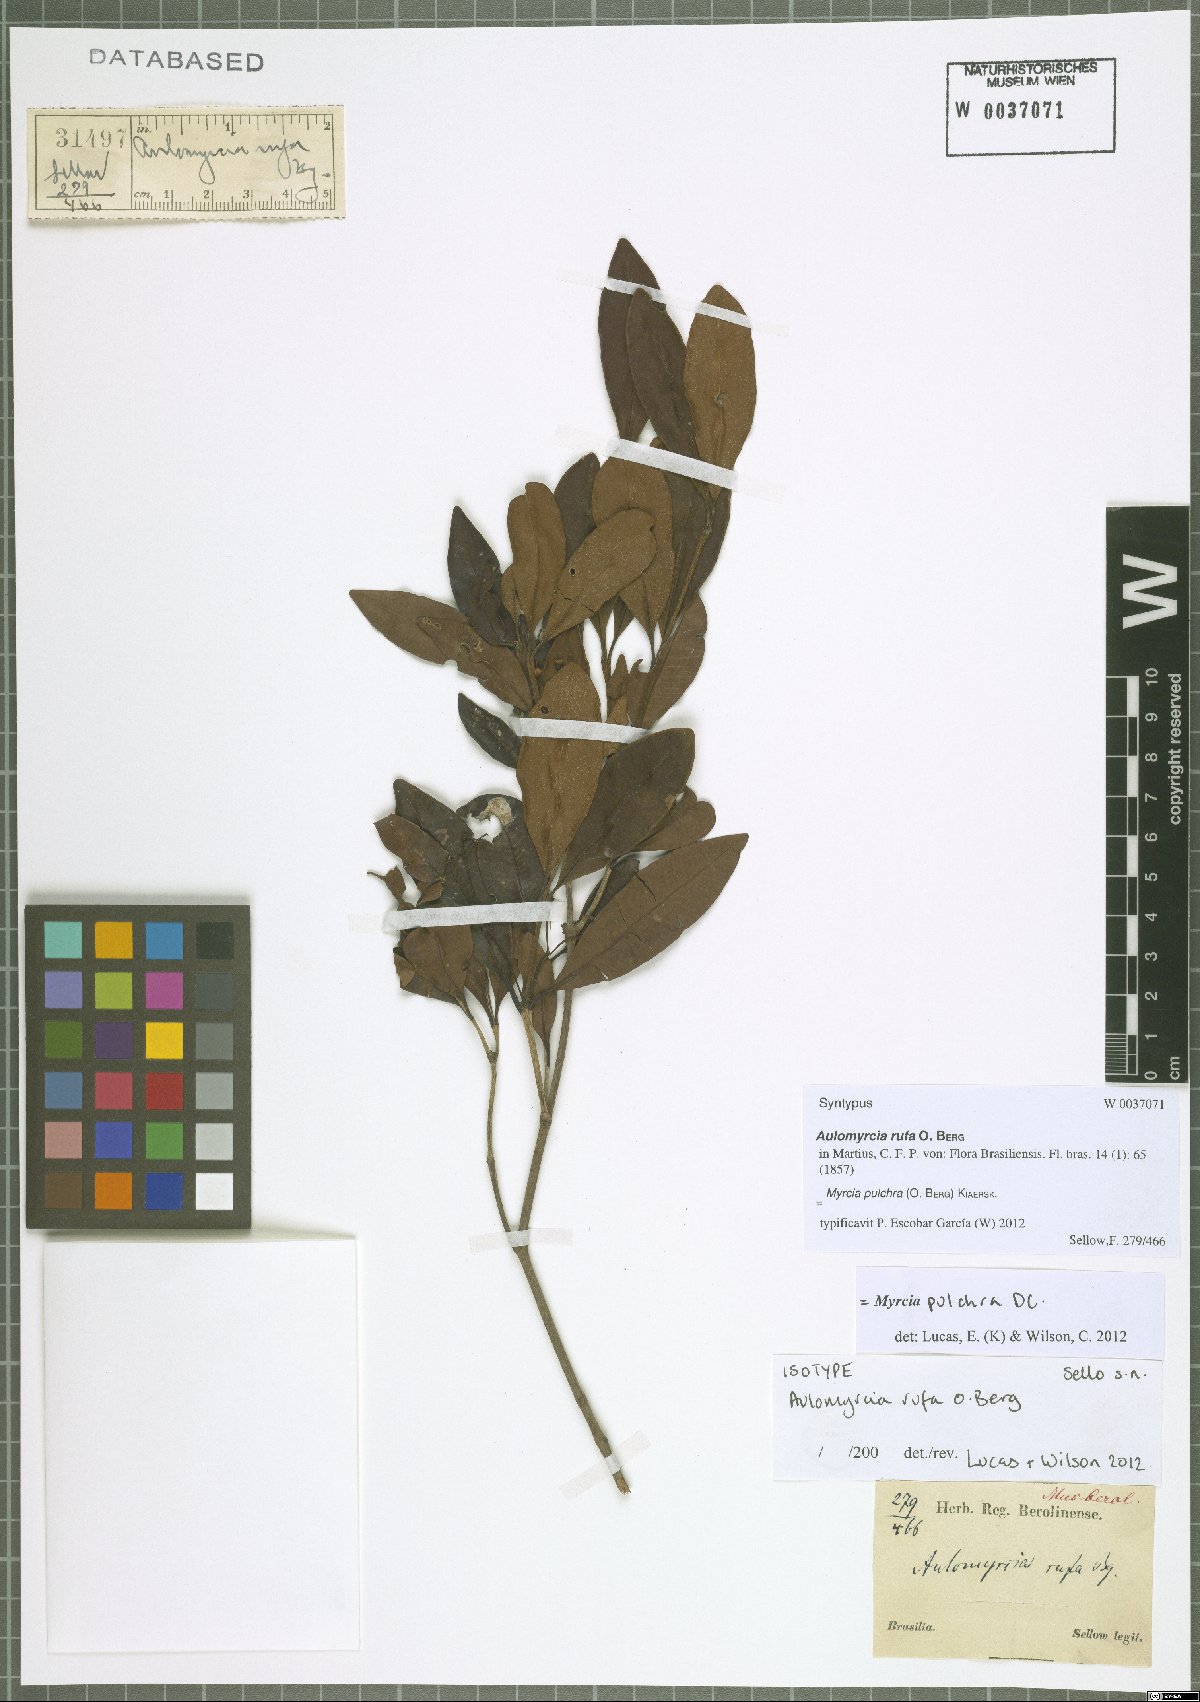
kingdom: Plantae
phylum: Tracheophyta
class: Magnoliopsida
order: Myrtales
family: Myrtaceae
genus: Myrcia
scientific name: Myrcia pulchra
